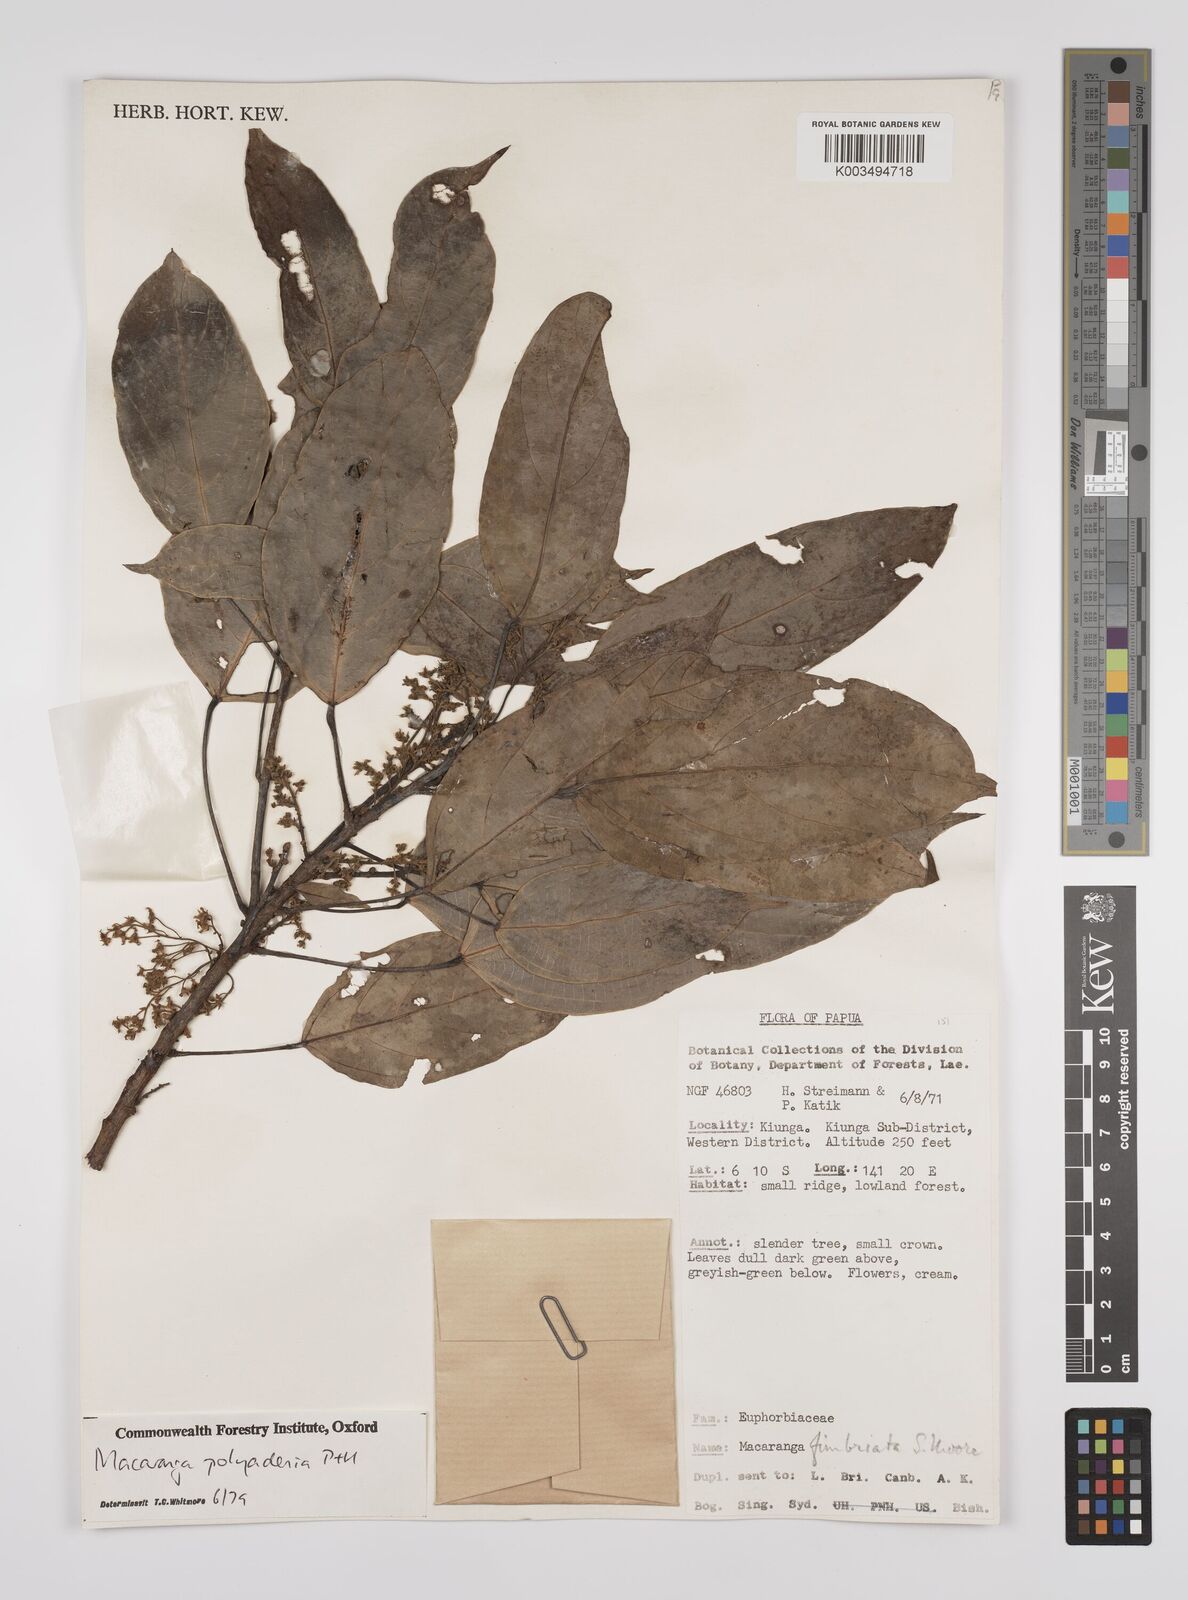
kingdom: Plantae
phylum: Tracheophyta
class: Magnoliopsida
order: Malpighiales
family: Euphorbiaceae
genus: Macaranga
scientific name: Macaranga polyadenia
